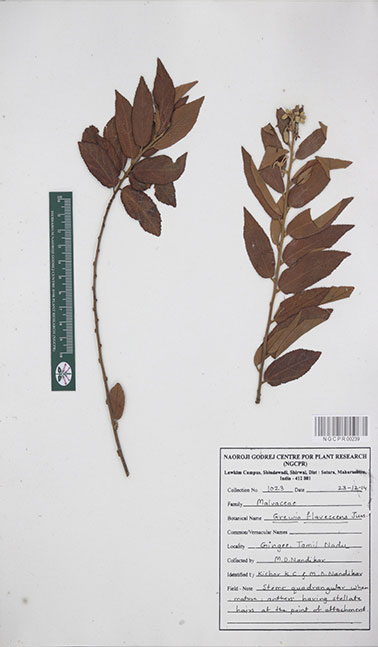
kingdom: Plantae
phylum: Tracheophyta
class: Magnoliopsida
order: Malvales
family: Malvaceae
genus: Grewia
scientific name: Grewia flavescens
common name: Sandpaper raisin
